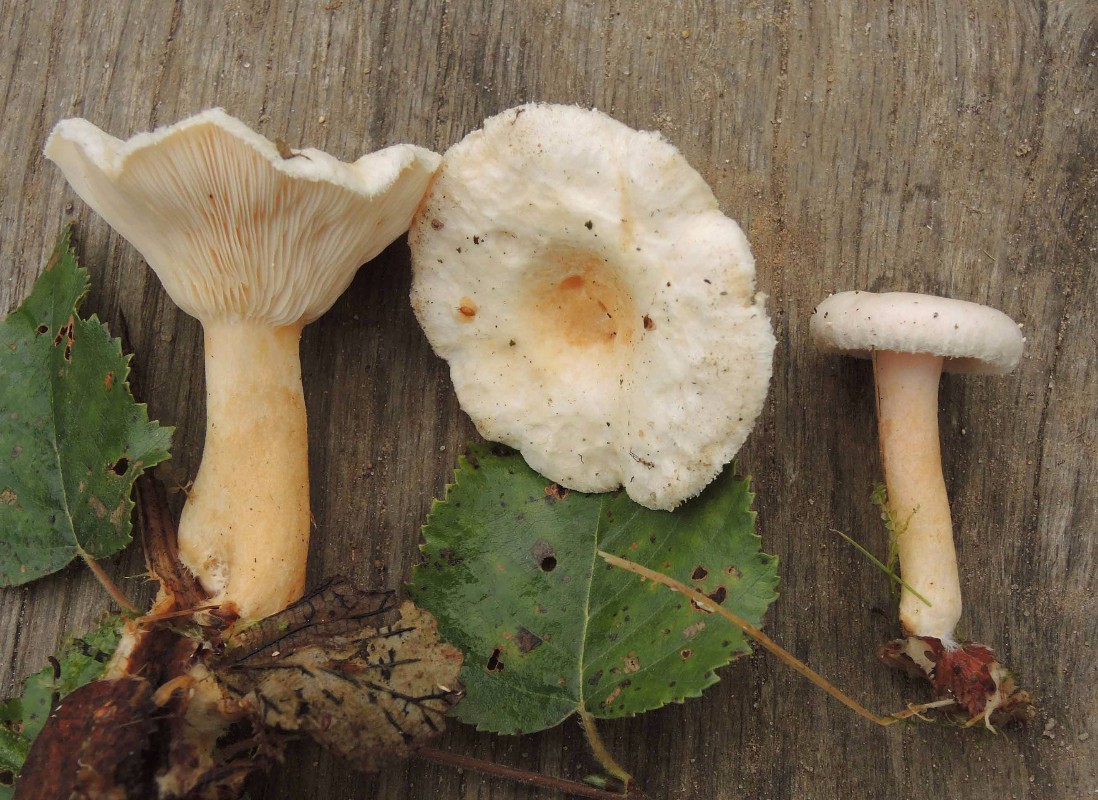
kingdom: Fungi
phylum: Basidiomycota
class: Agaricomycetes
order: Russulales
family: Russulaceae
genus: Lactarius
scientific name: Lactarius scoticus
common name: tørve-mælkehat
